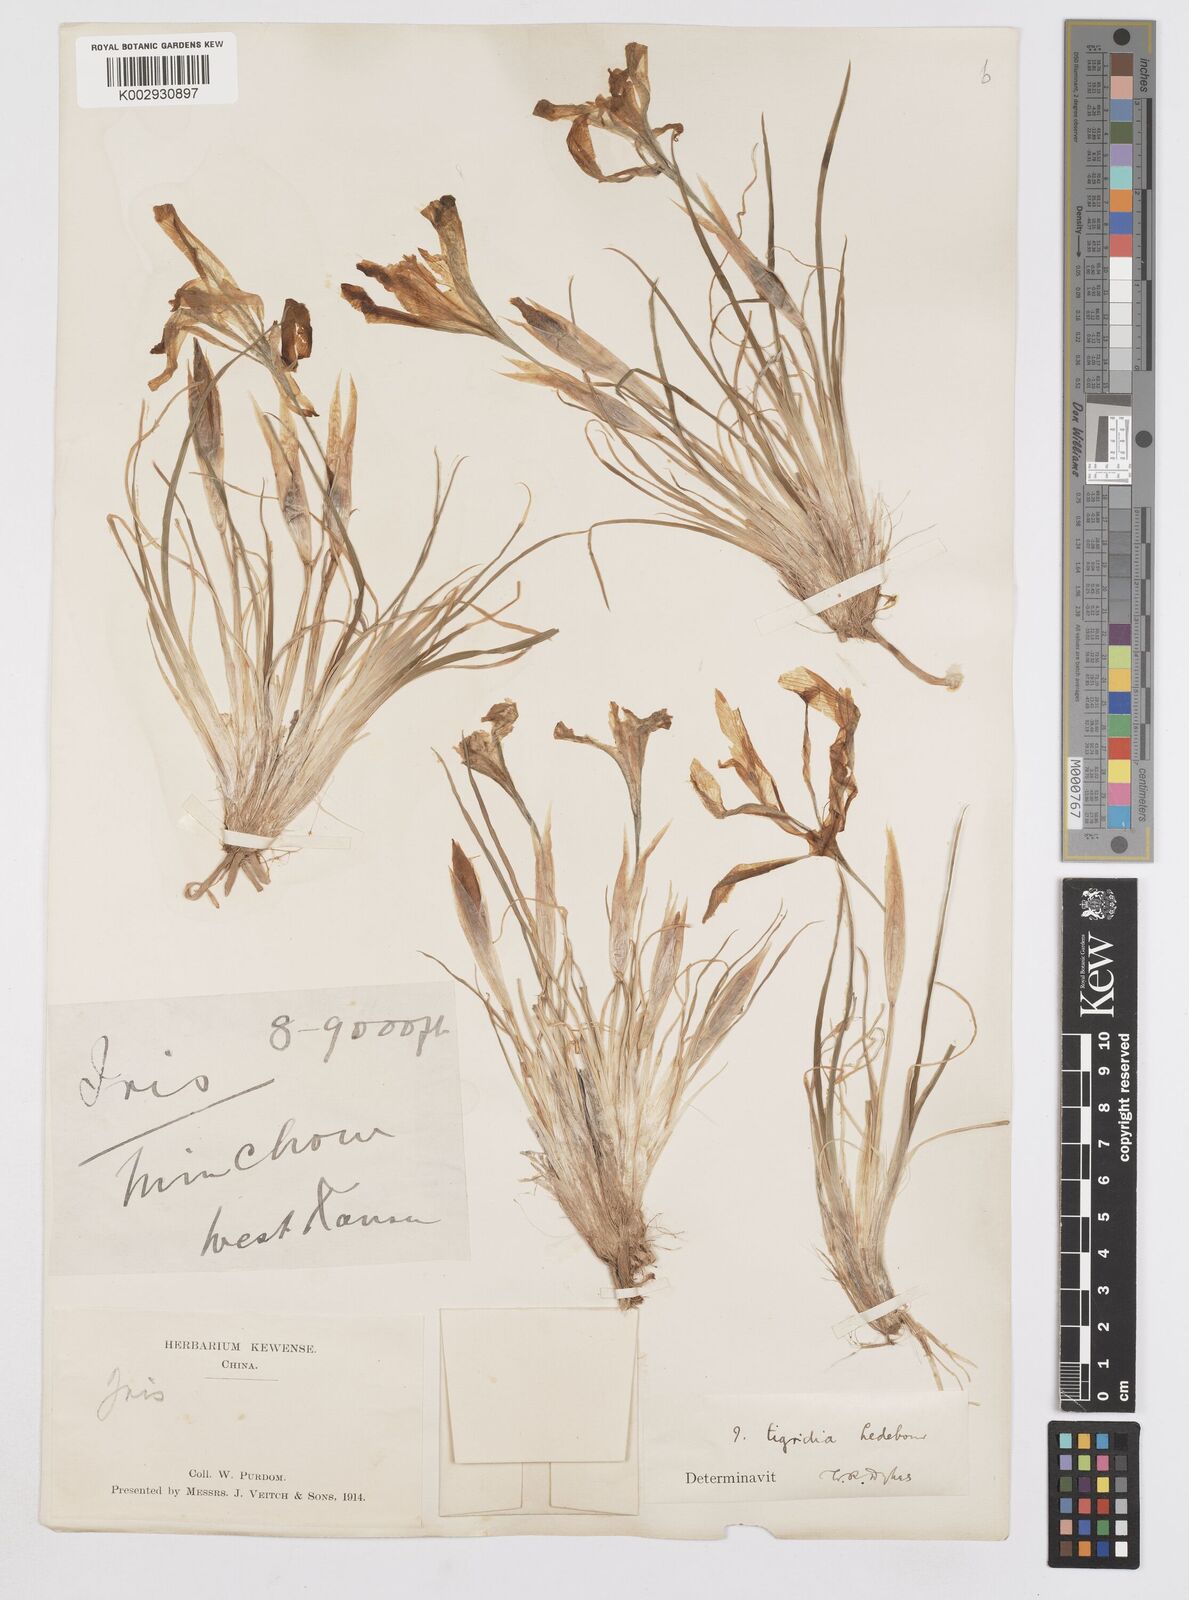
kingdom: Plantae
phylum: Tracheophyta
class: Liliopsida
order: Asparagales
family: Iridaceae
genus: Iris
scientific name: Iris tigridia
